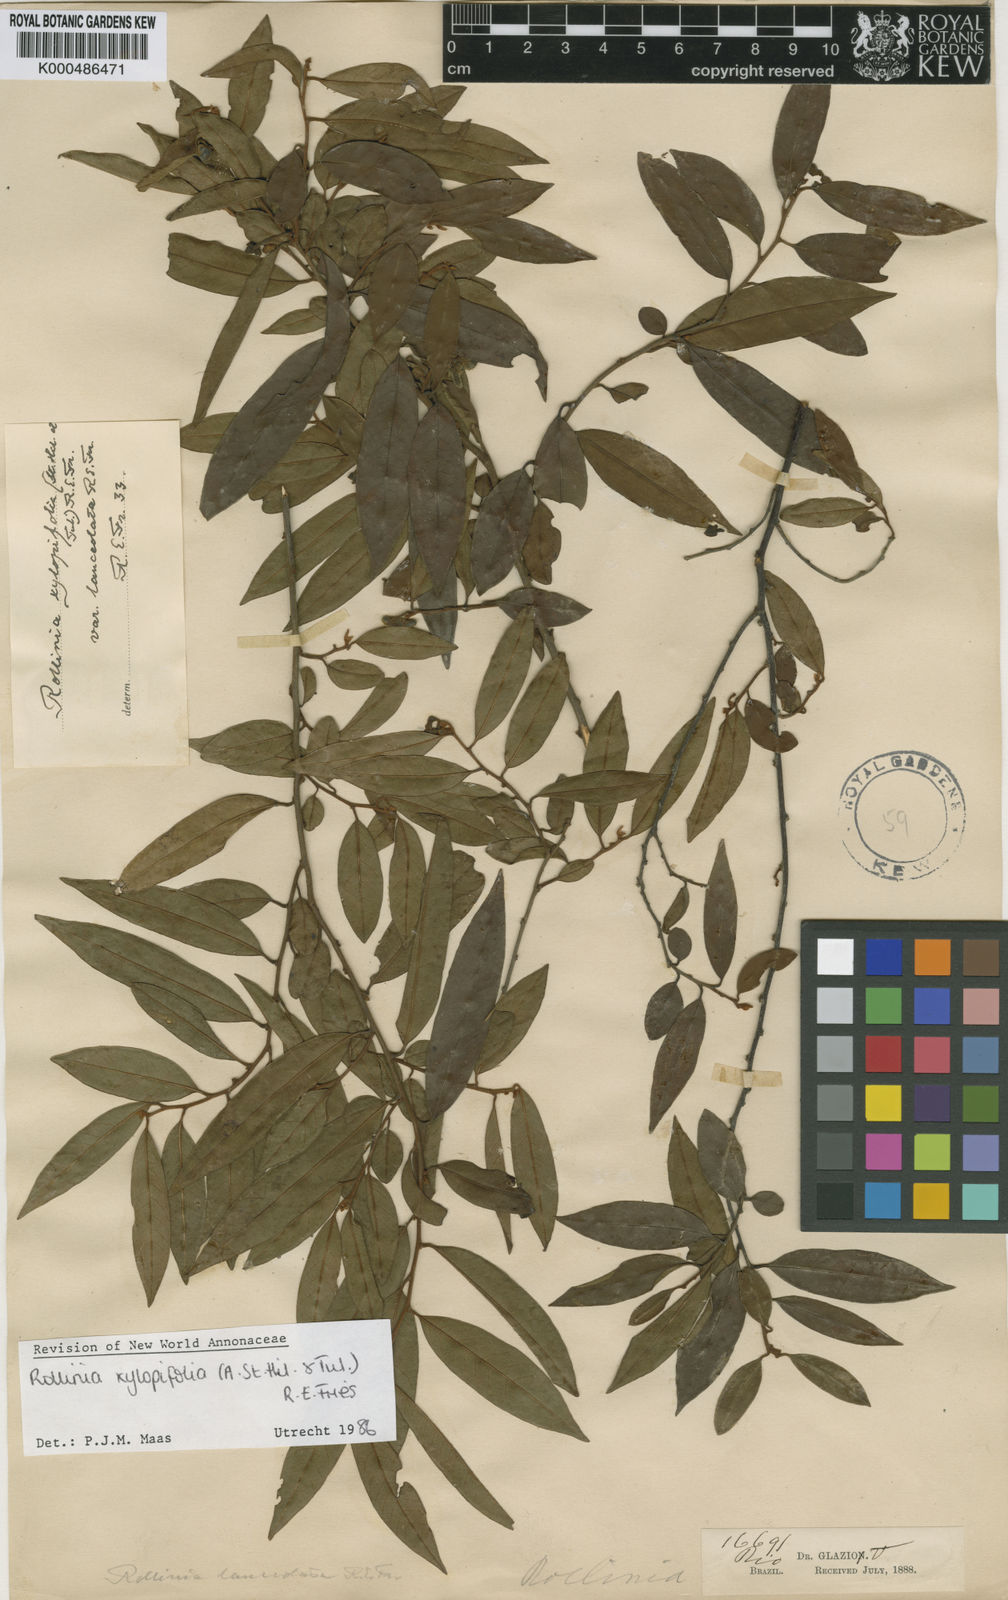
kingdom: Plantae
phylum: Tracheophyta
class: Magnoliopsida
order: Magnoliales
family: Annonaceae
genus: Annona
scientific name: Annona xylopiifolia
